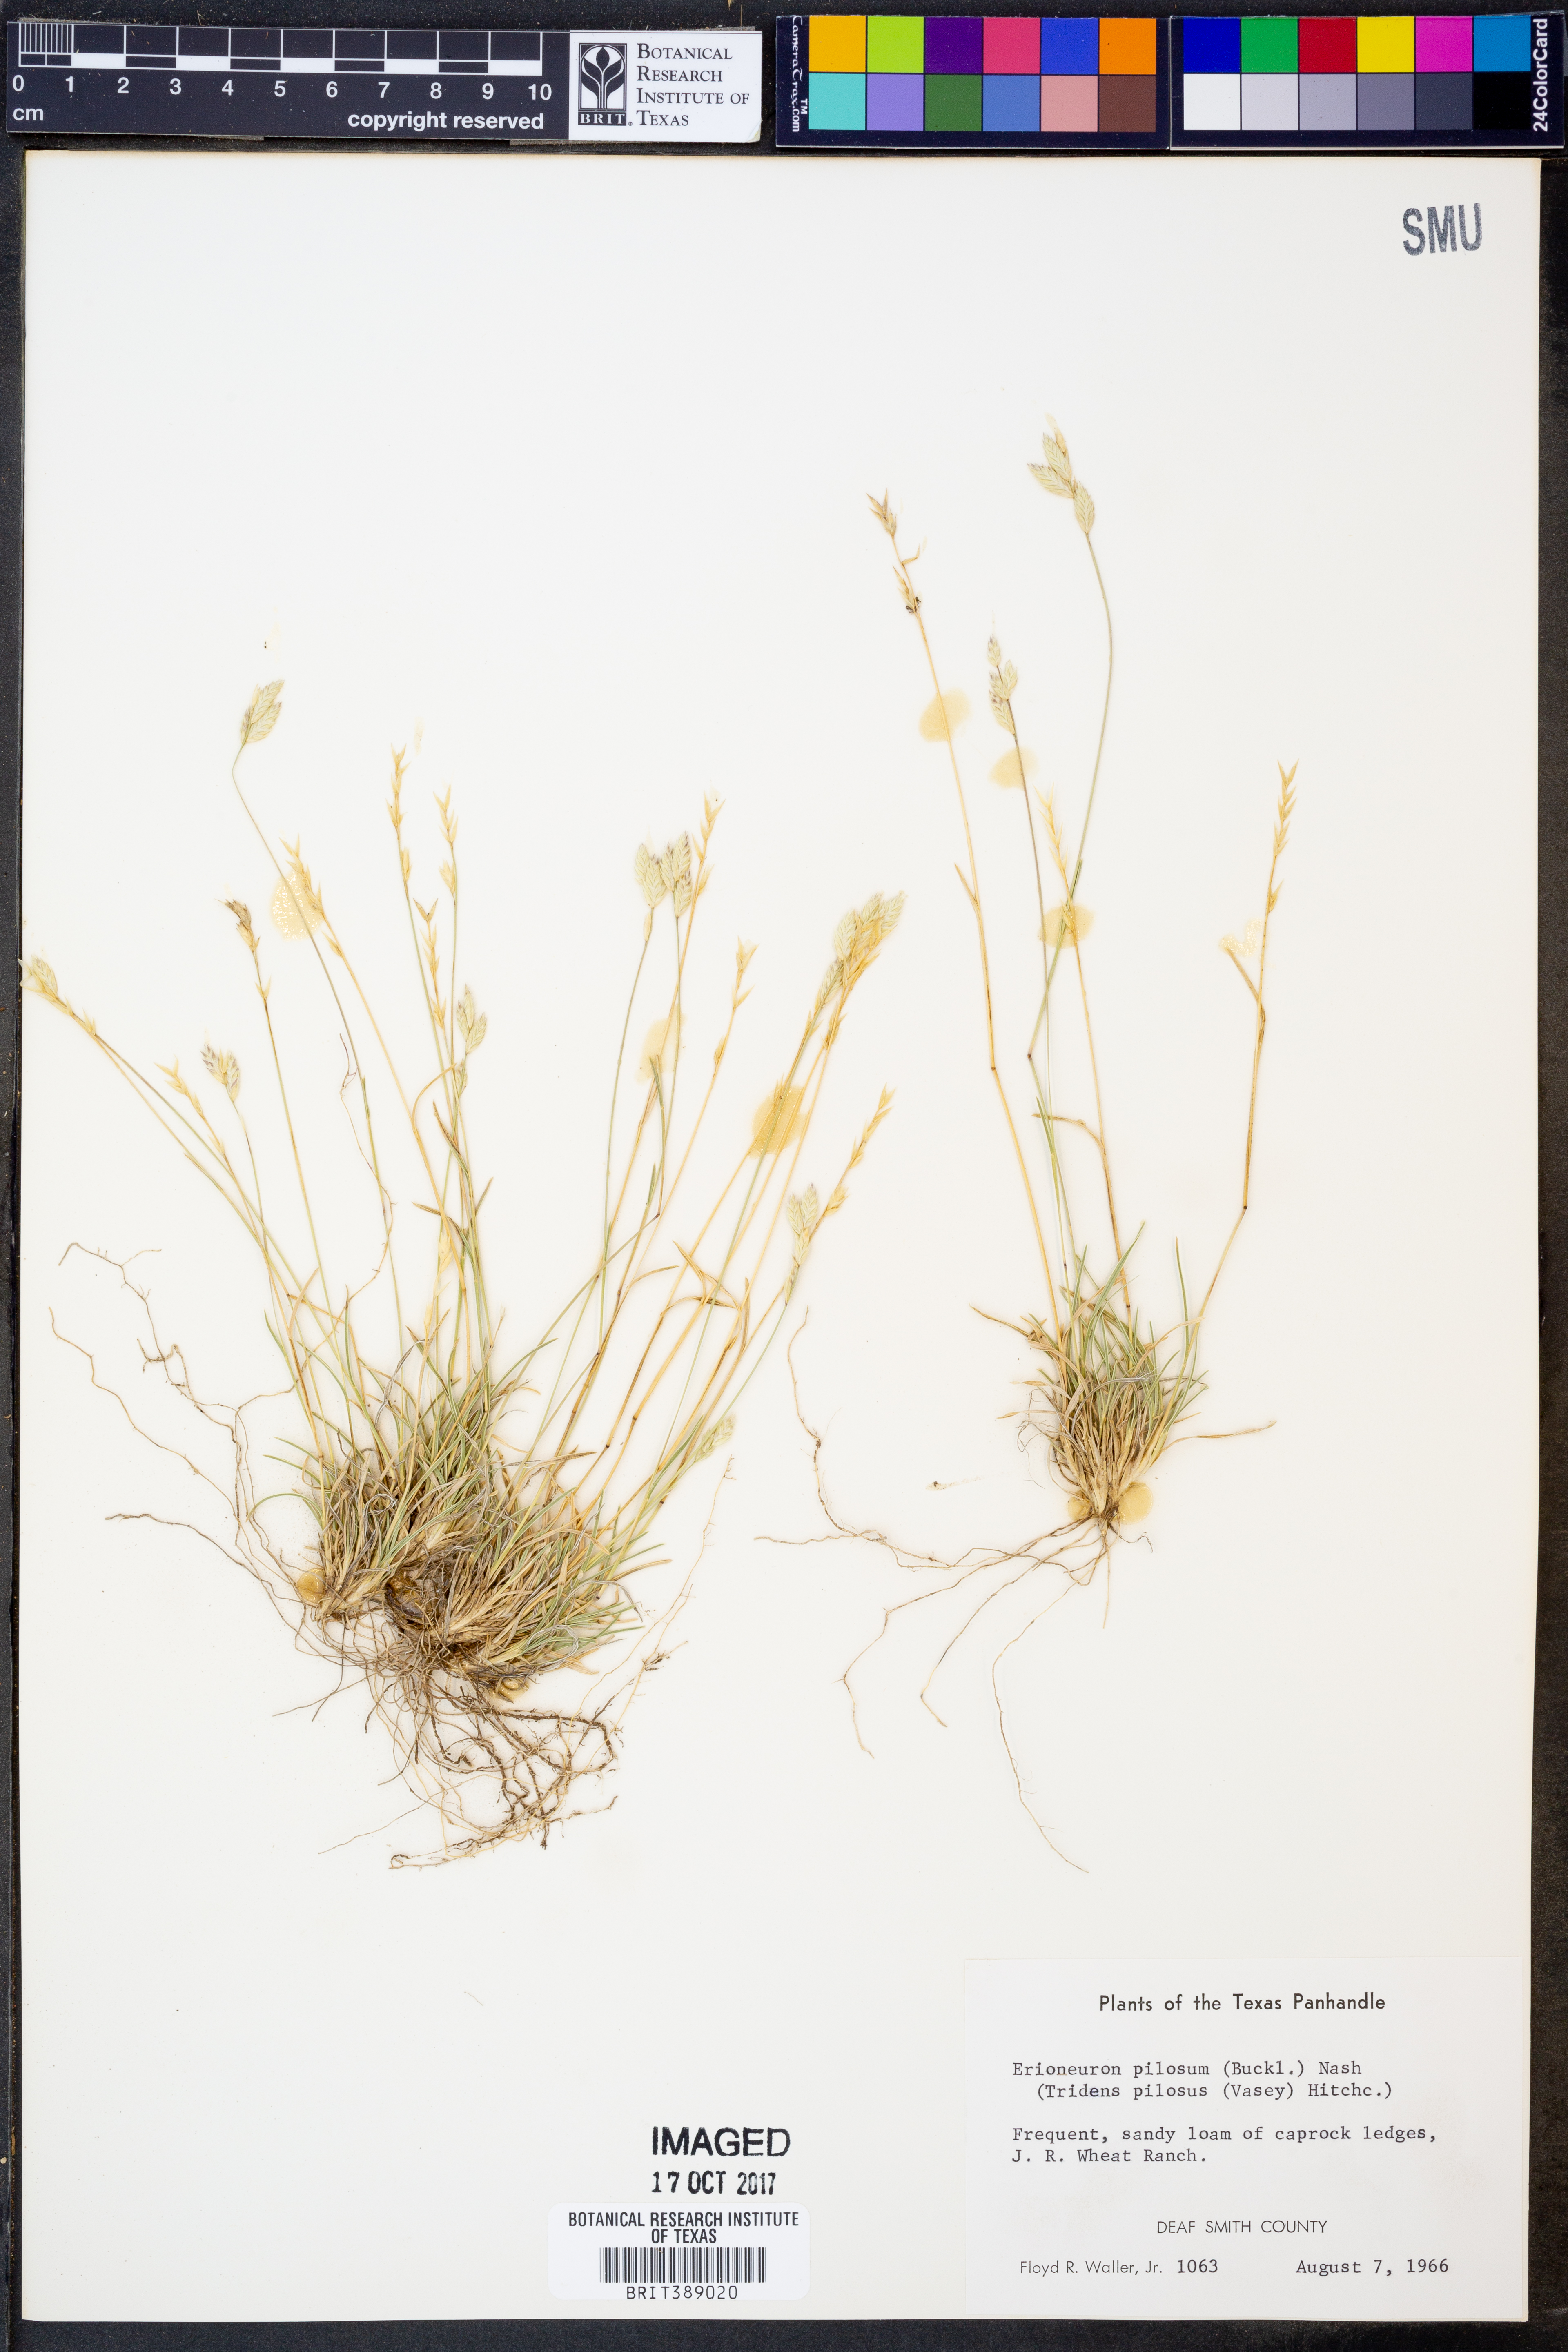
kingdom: Plantae
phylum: Tracheophyta
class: Liliopsida
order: Poales
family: Poaceae
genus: Erioneuron
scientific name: Erioneuron pilosum
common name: Hairy woolly grass
